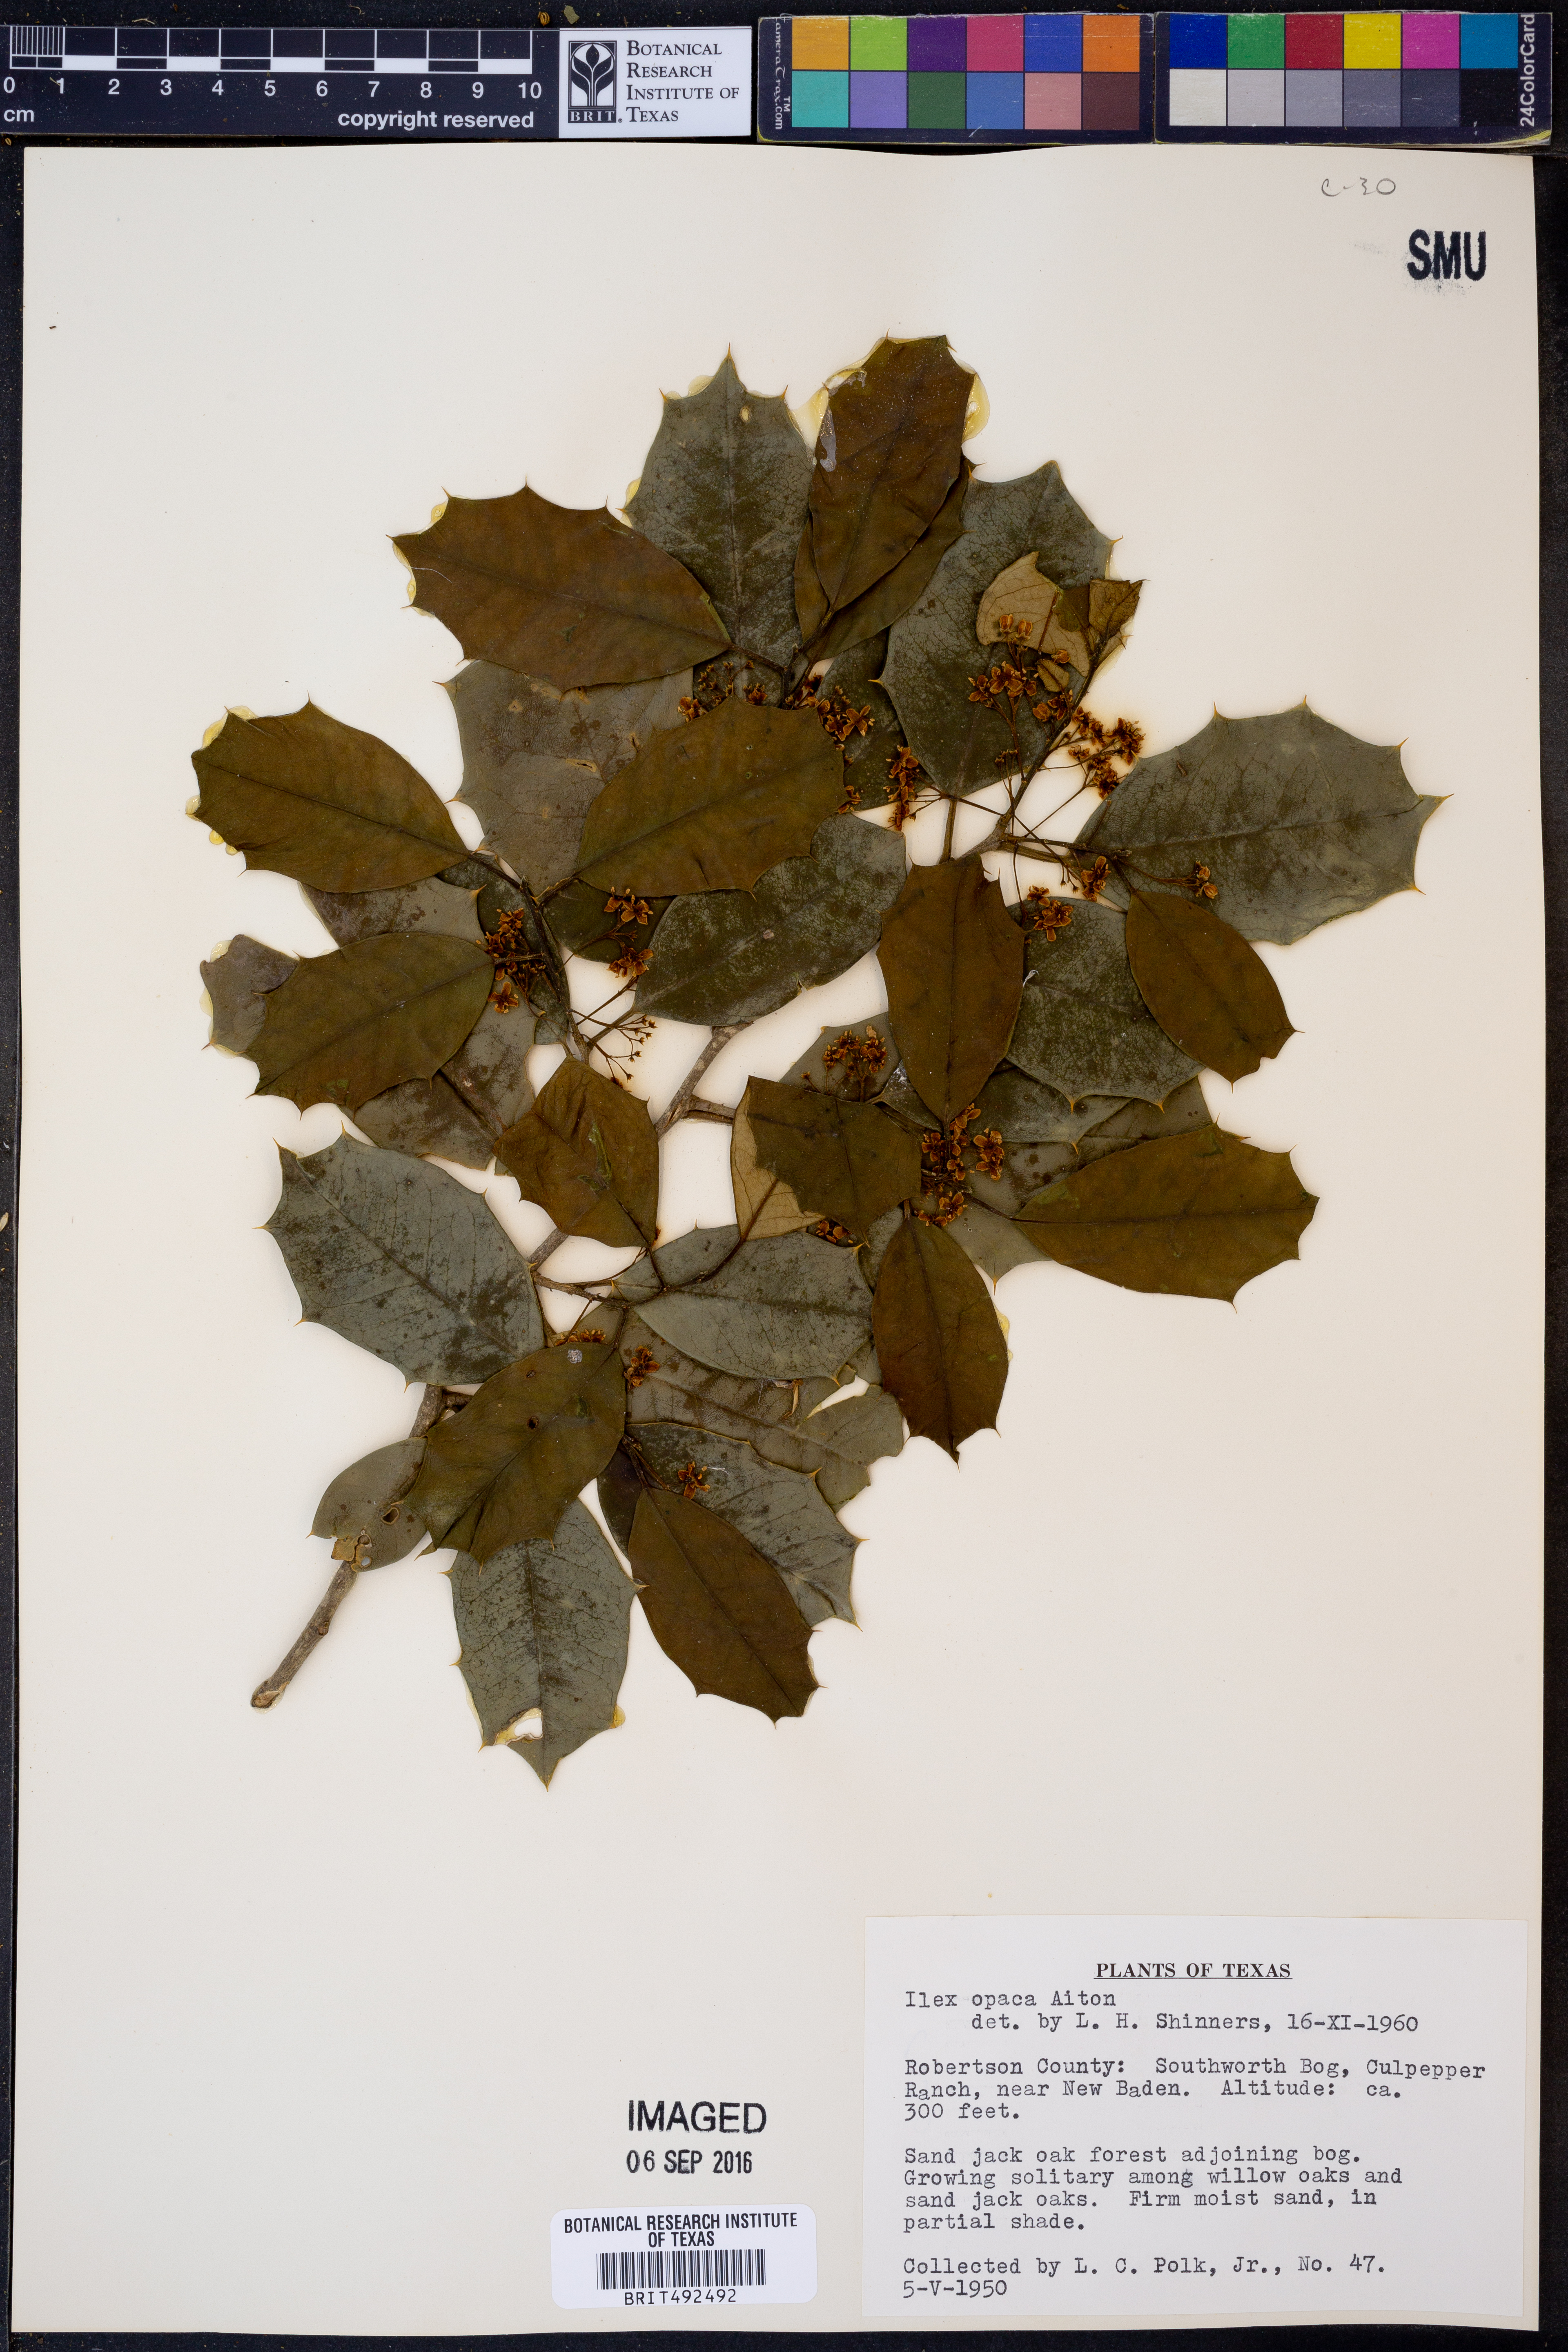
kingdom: Plantae
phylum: Tracheophyta
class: Magnoliopsida
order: Aquifoliales
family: Aquifoliaceae
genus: Ilex
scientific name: Ilex opaca
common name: American holly
